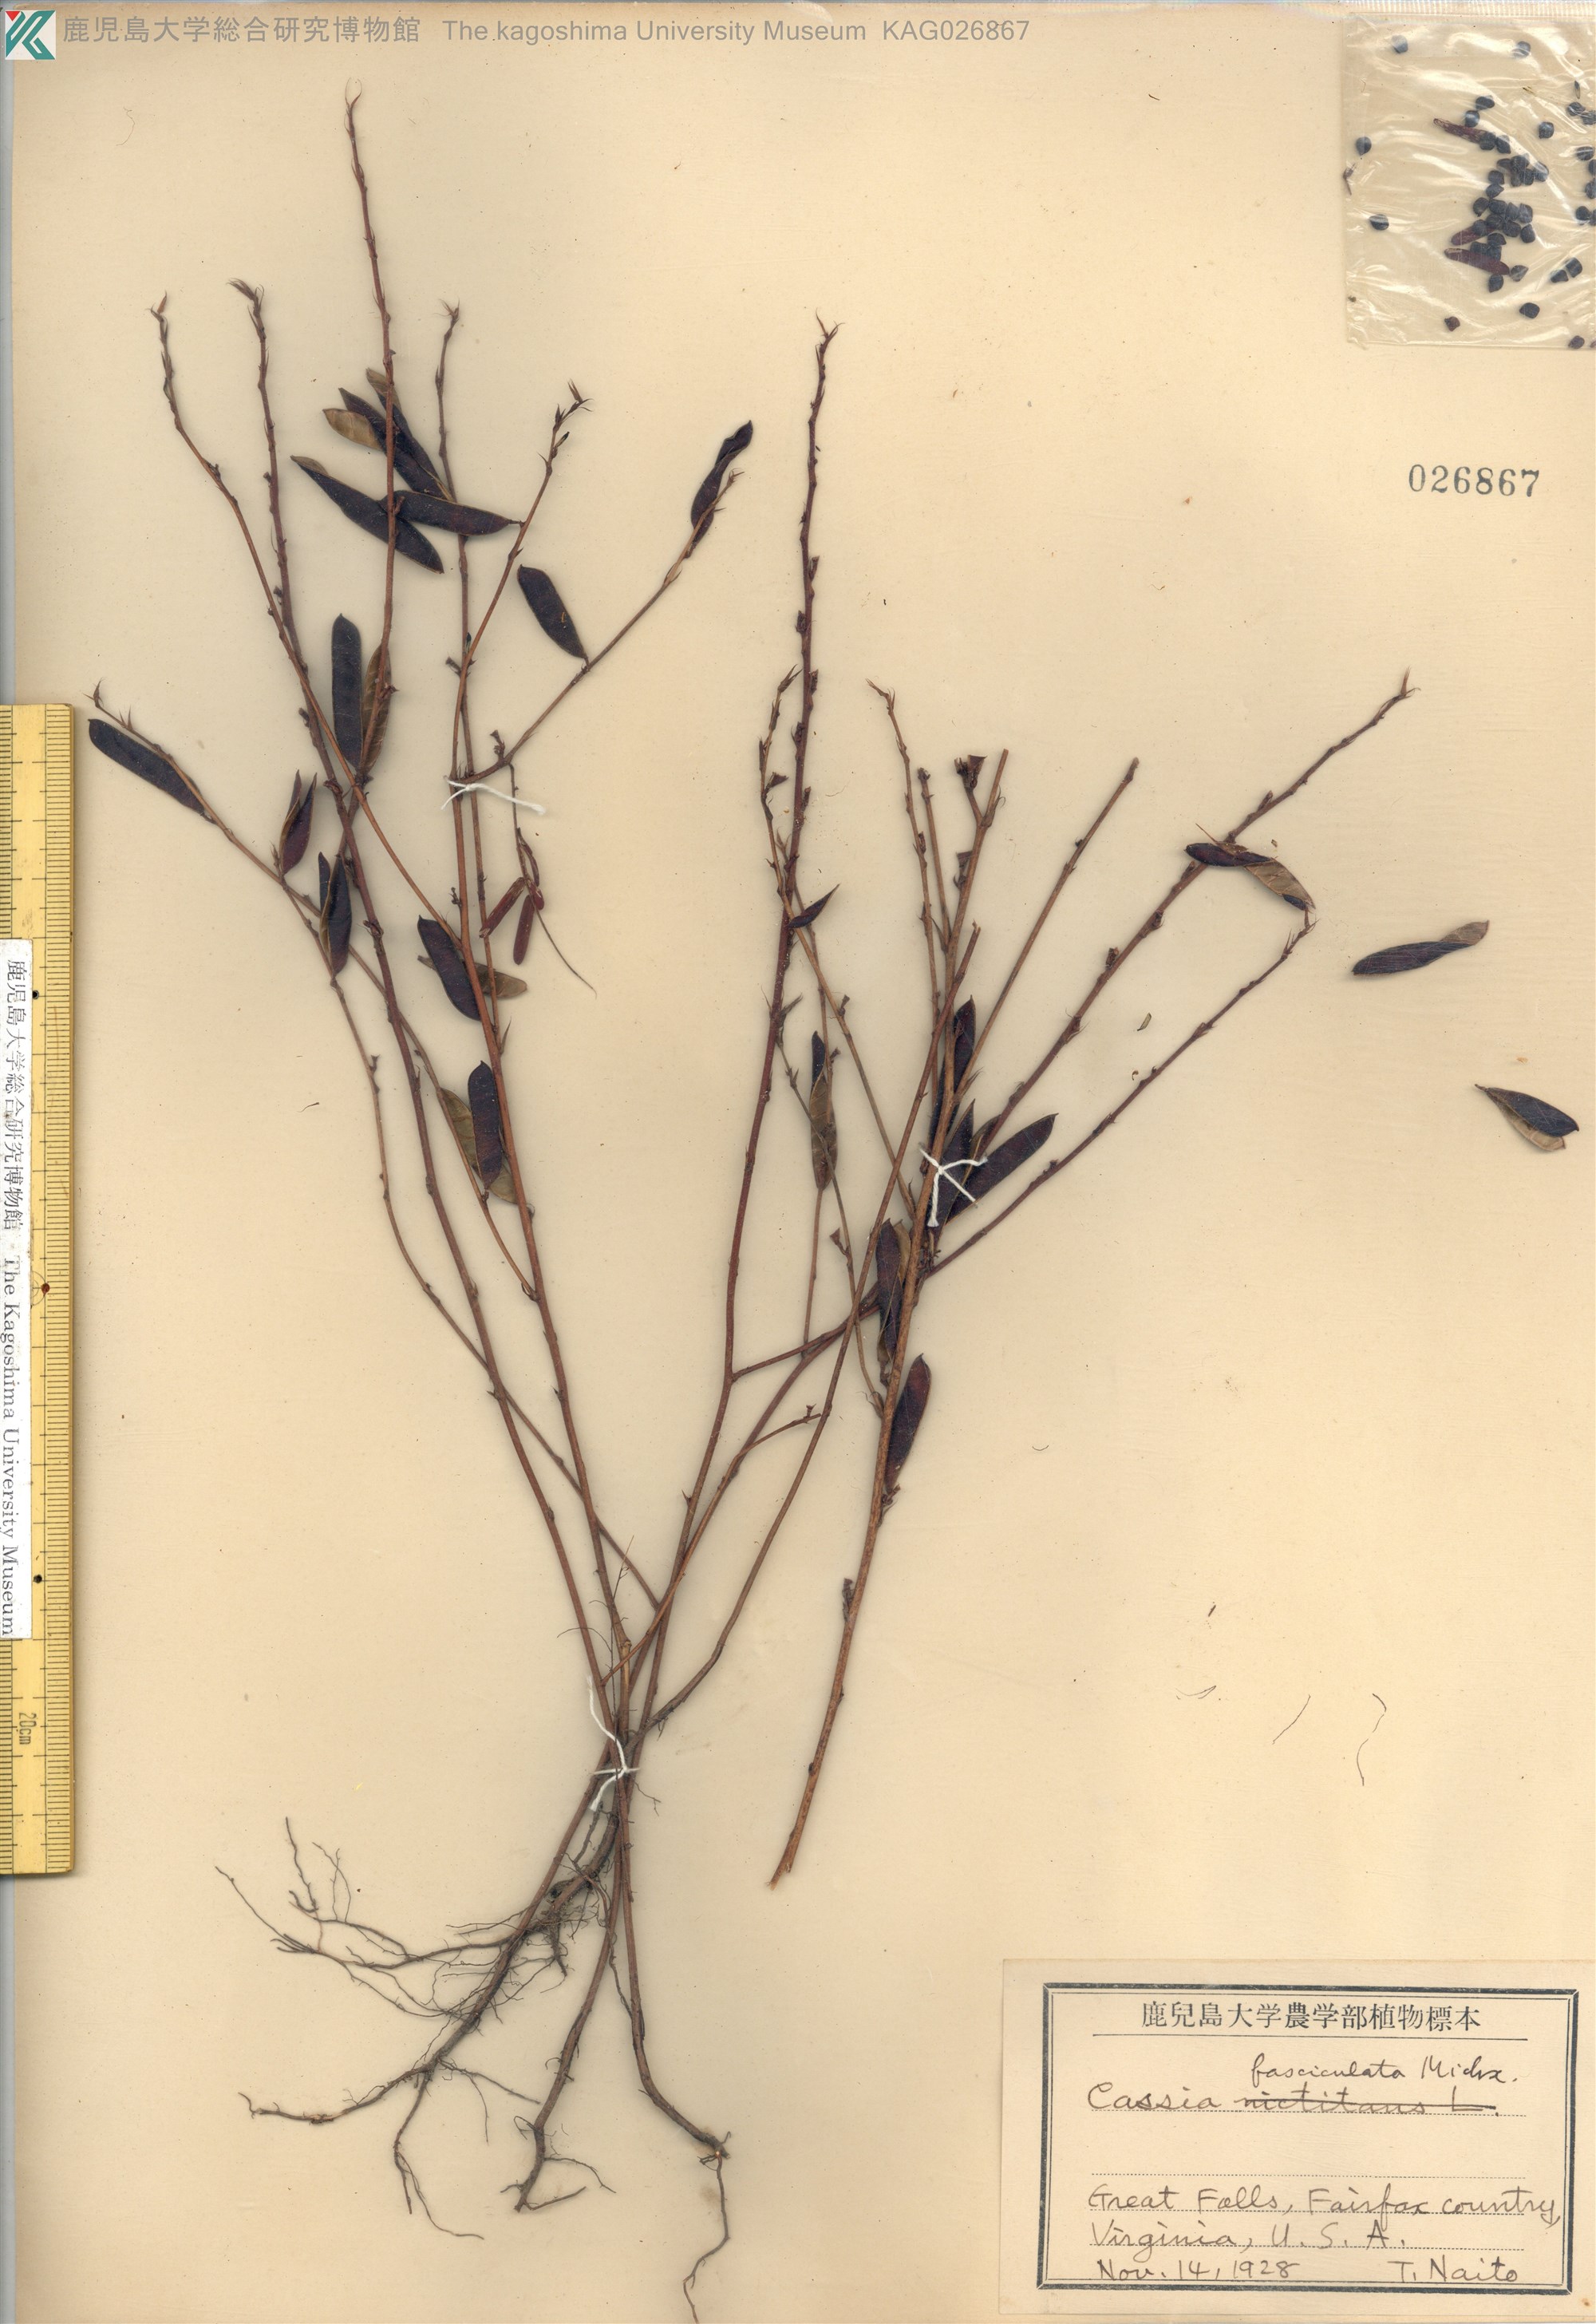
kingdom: Plantae
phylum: Tracheophyta
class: Magnoliopsida
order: Fabales
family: Fabaceae
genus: Chamaecrista
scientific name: Chamaecrista fasciculata
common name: Golden cassia
